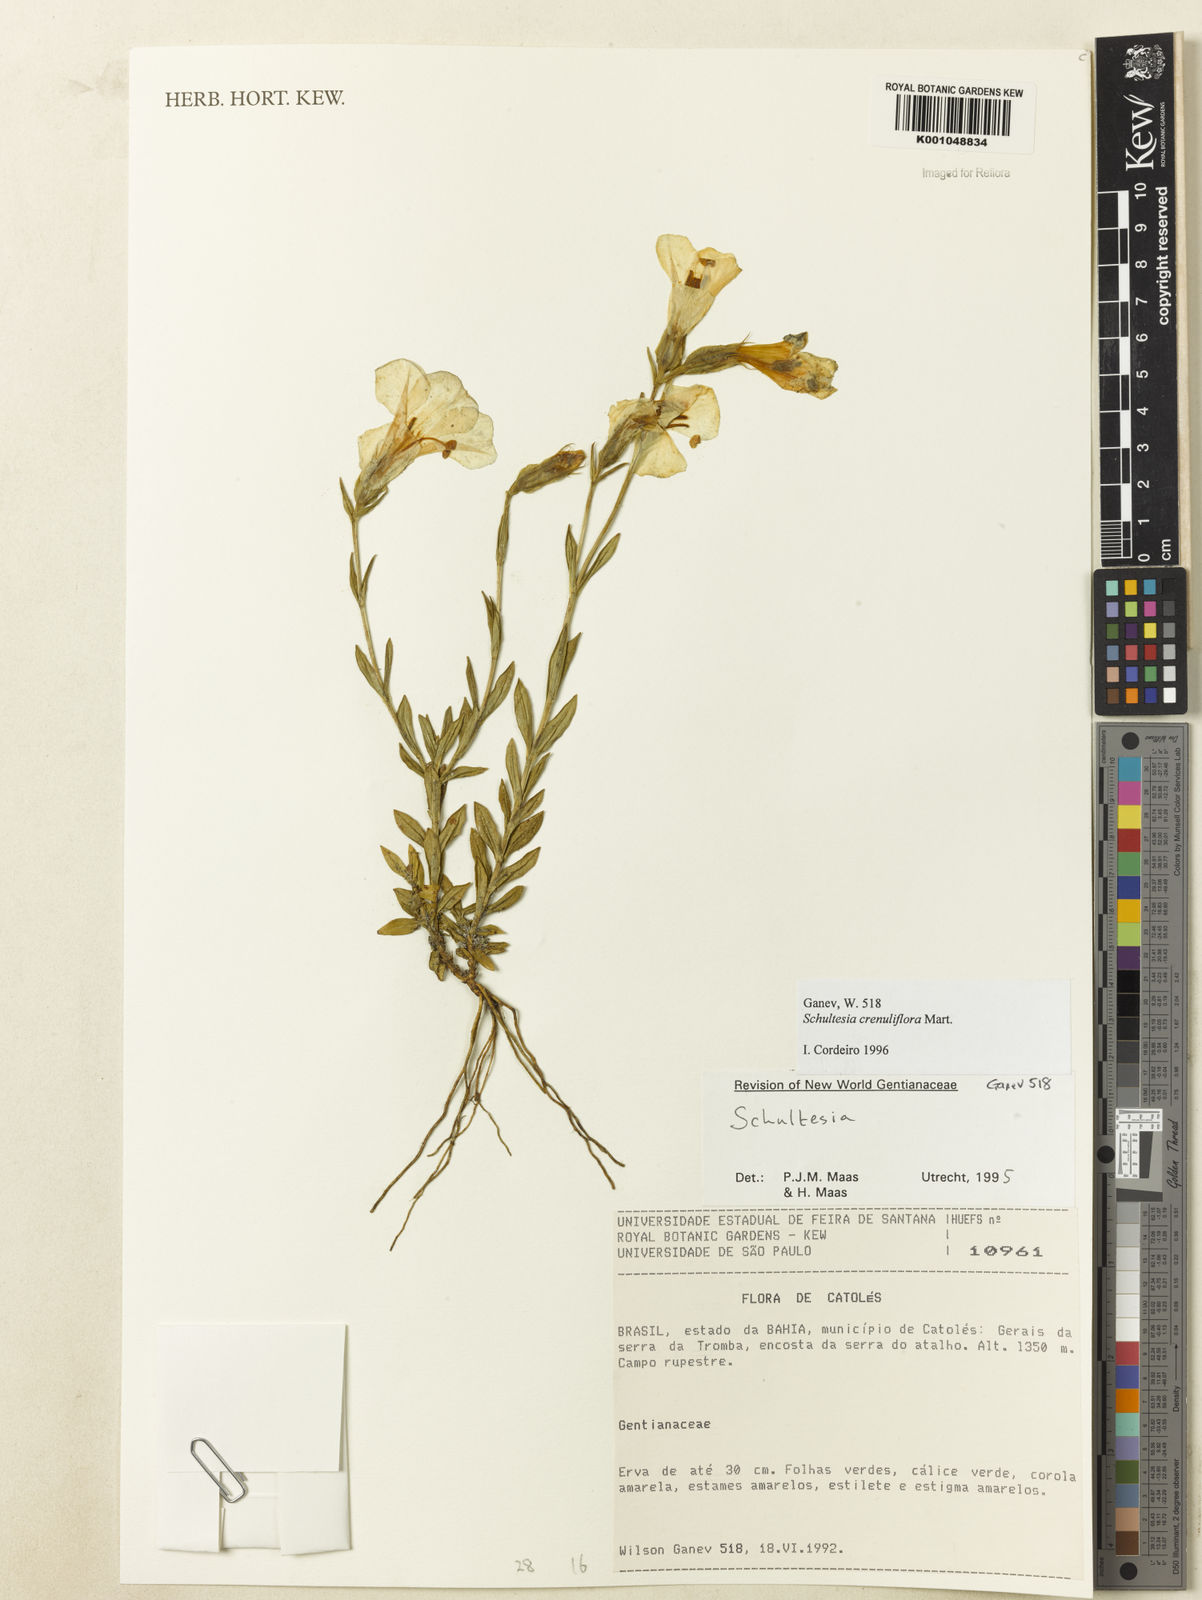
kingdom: Plantae
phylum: Tracheophyta
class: Magnoliopsida
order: Gentianales
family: Gentianaceae
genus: Schultesia
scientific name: Schultesia crenuliflora
